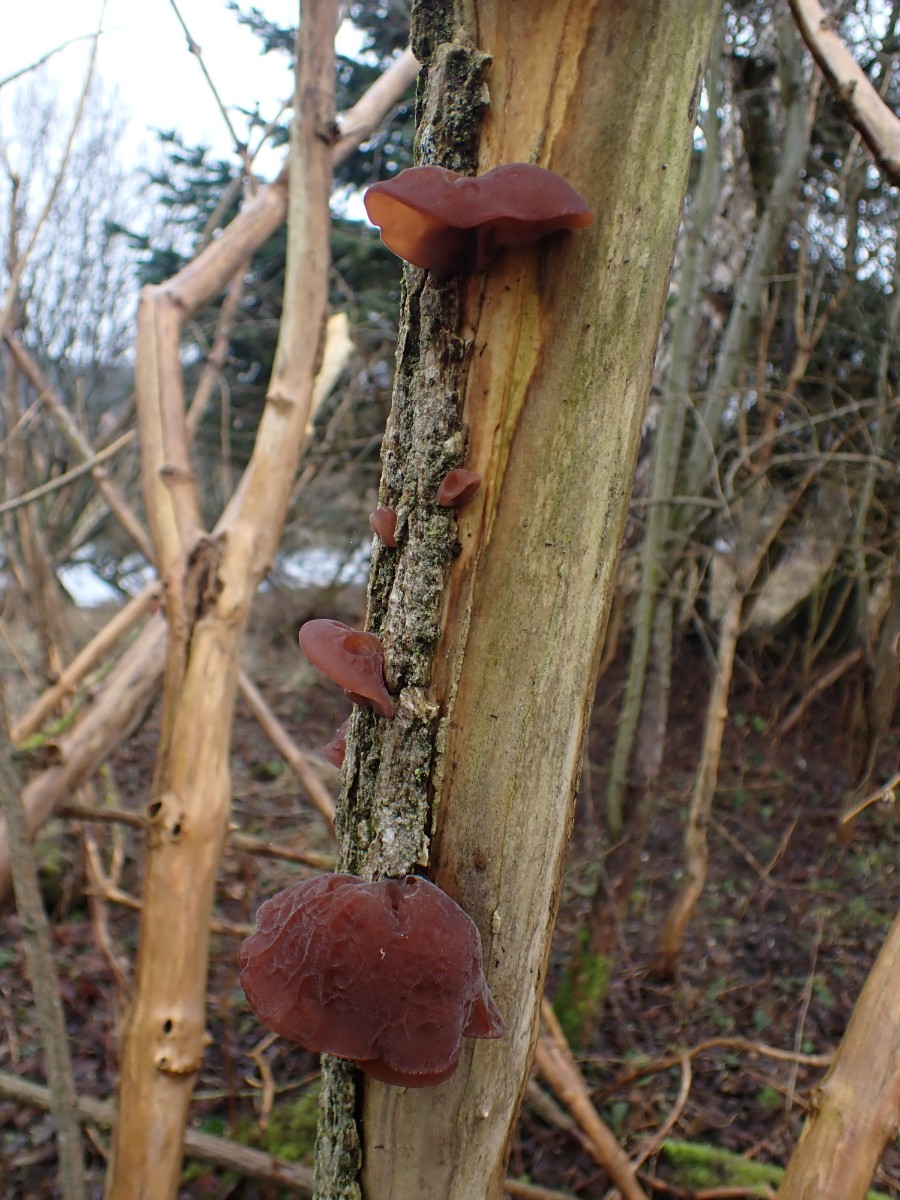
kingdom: Fungi
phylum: Basidiomycota
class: Agaricomycetes
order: Auriculariales
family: Auriculariaceae
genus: Auricularia
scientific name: Auricularia auricula-judae
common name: almindelig judasøre
